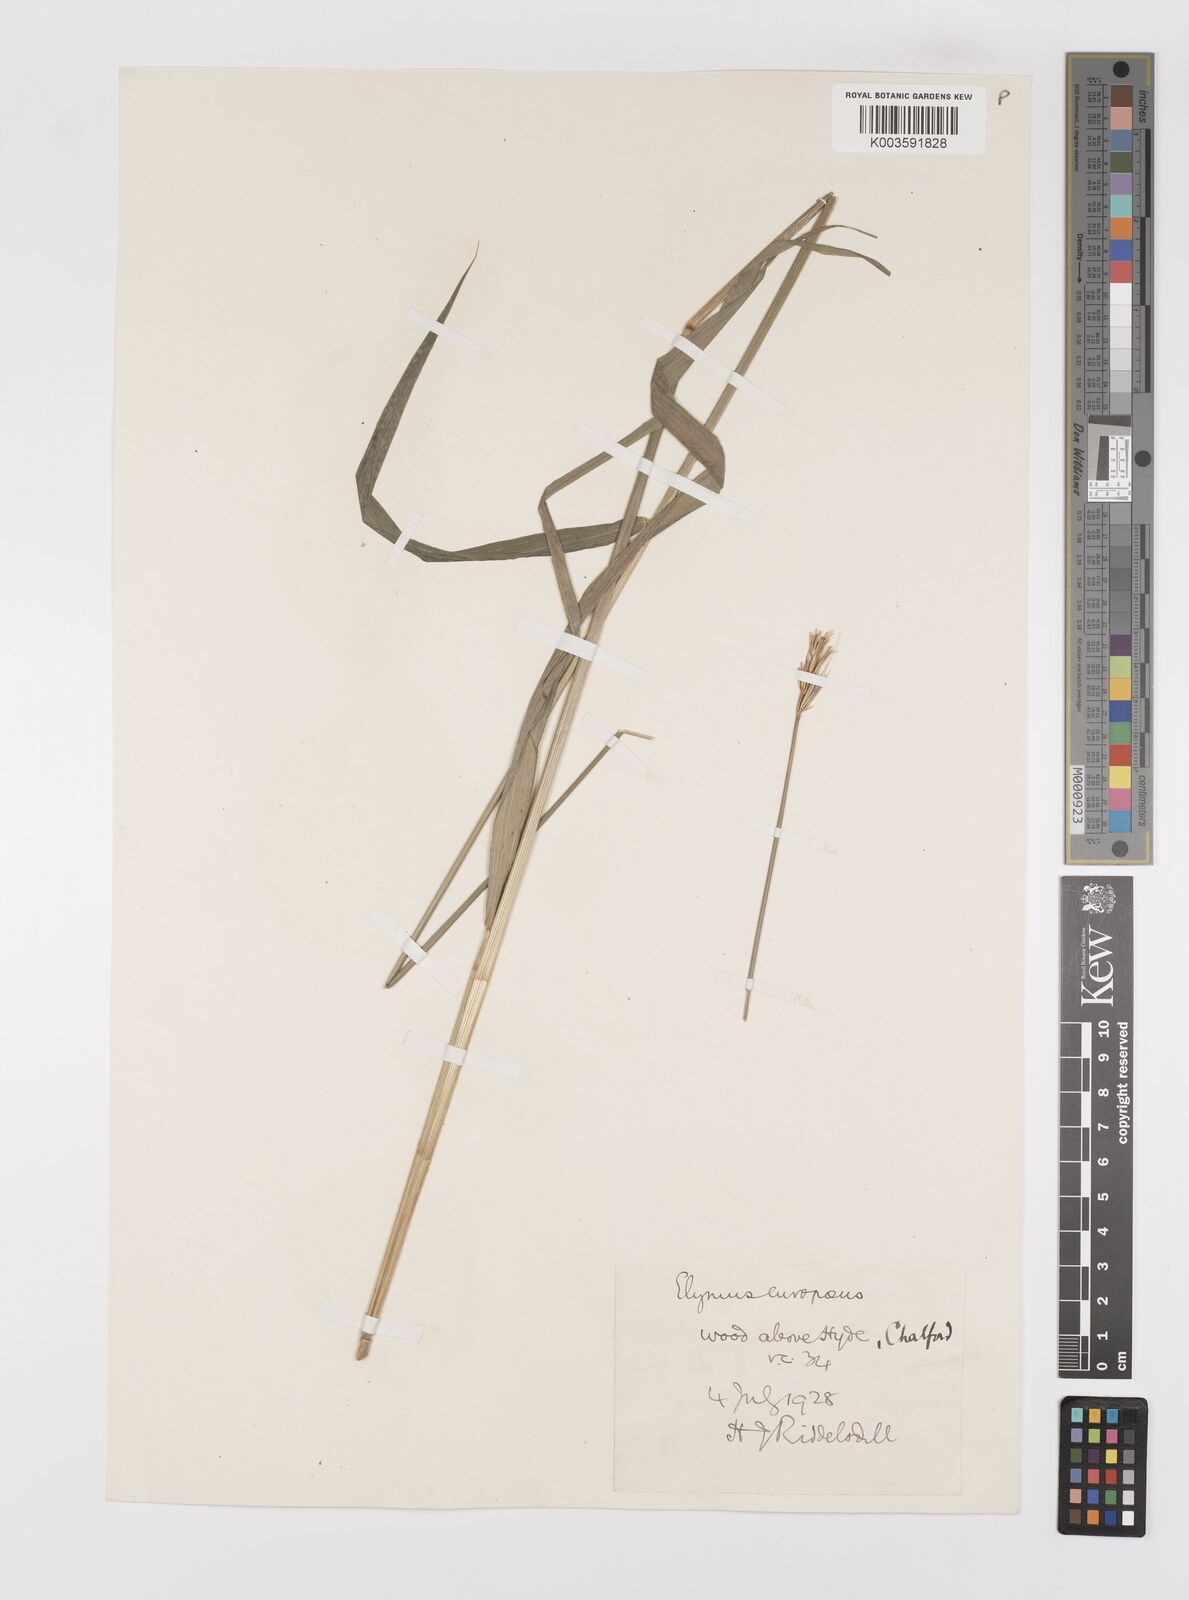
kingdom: Plantae
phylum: Tracheophyta
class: Liliopsida
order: Poales
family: Poaceae
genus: Hordelymus
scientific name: Hordelymus europaeus
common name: Wood-barley
